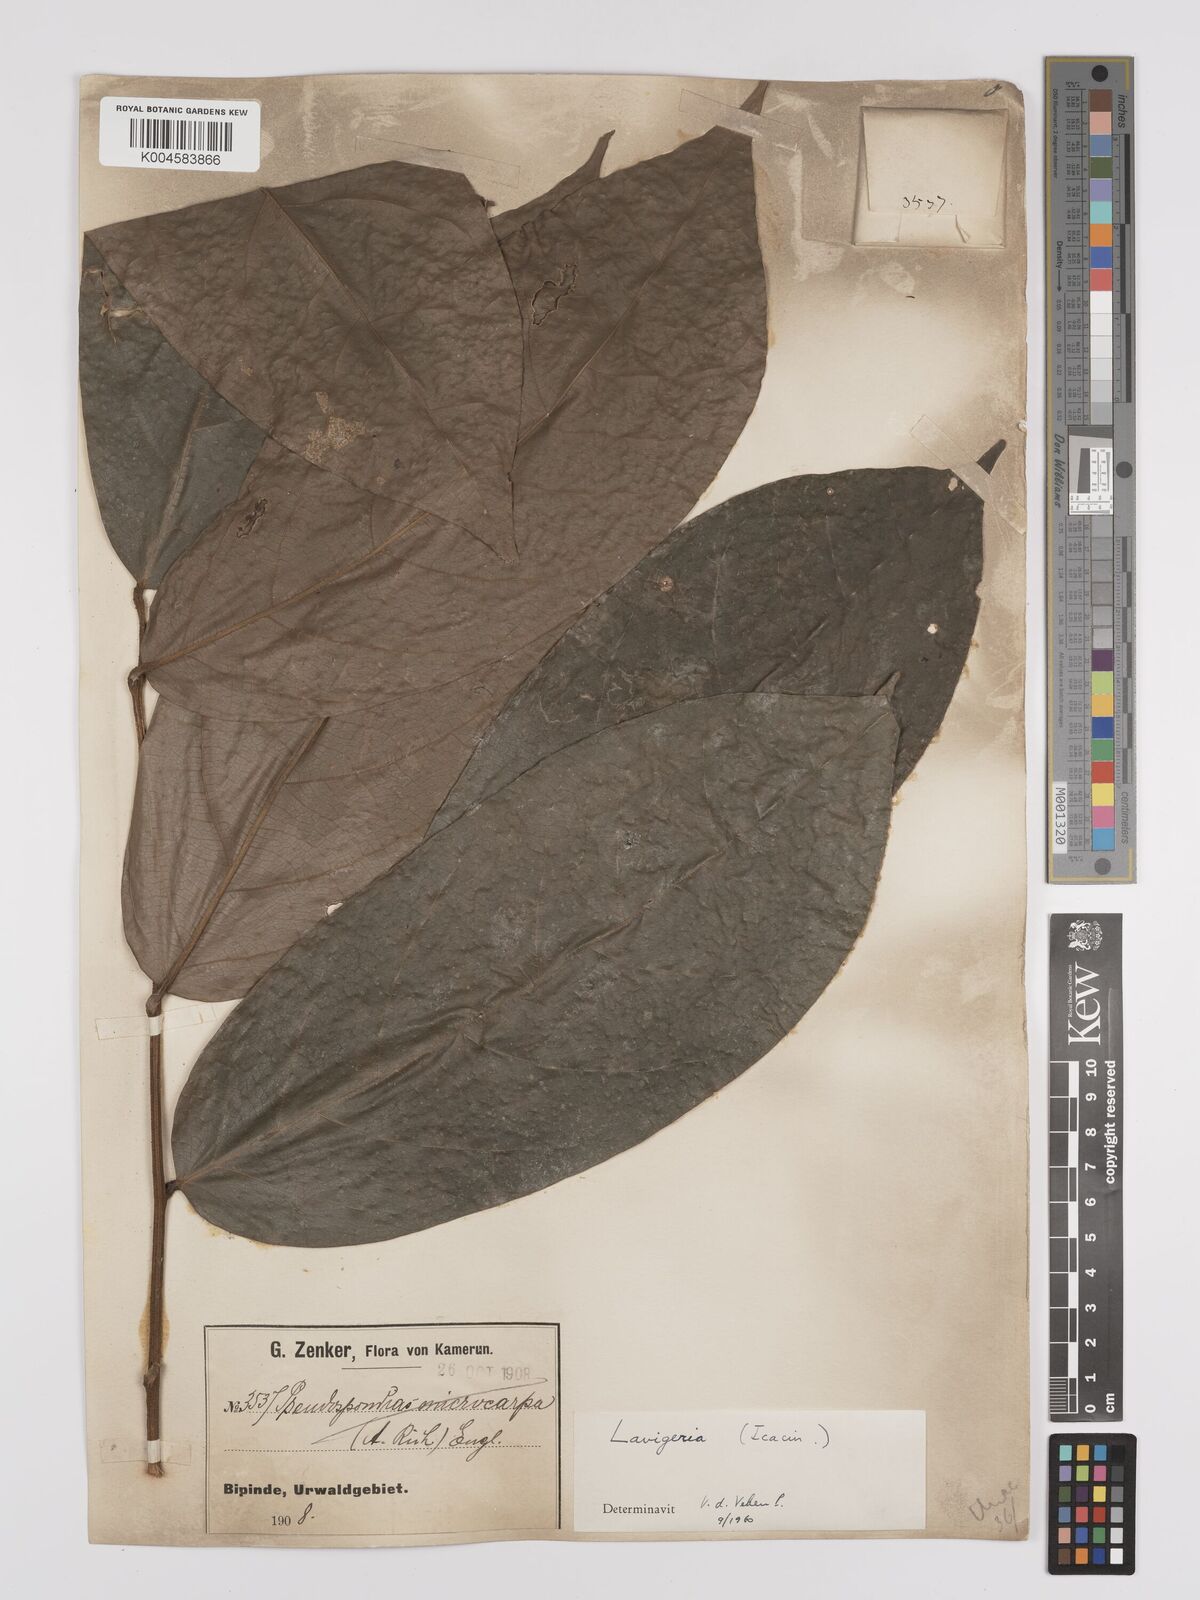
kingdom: Plantae
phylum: Tracheophyta
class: Magnoliopsida
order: Icacinales
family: Icacinaceae
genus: Lavigeria
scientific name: Lavigeria macrocarpa
